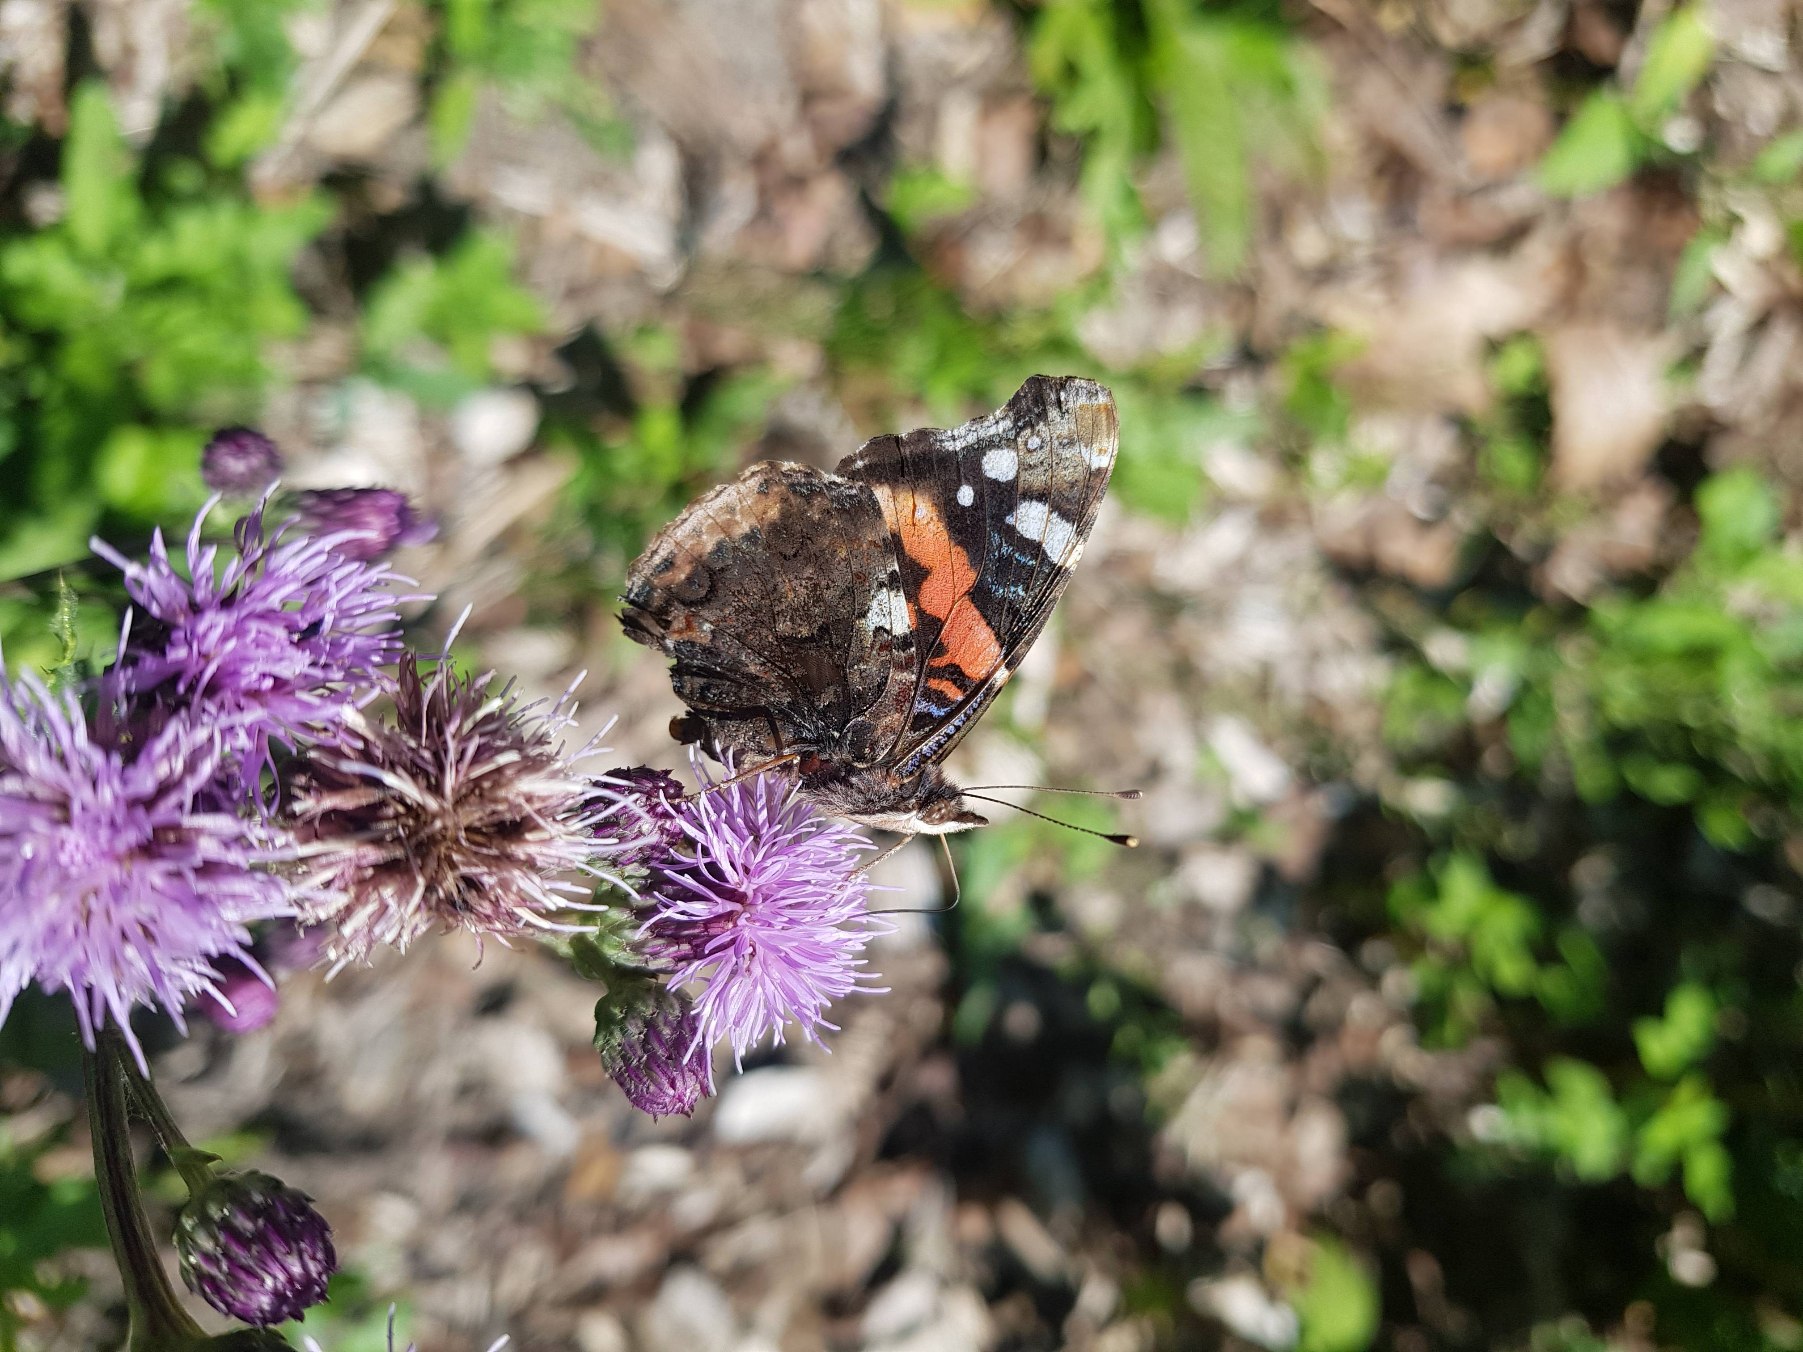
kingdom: Animalia
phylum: Arthropoda
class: Insecta
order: Lepidoptera
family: Nymphalidae
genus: Vanessa
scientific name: Vanessa atalanta
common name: Admiral
